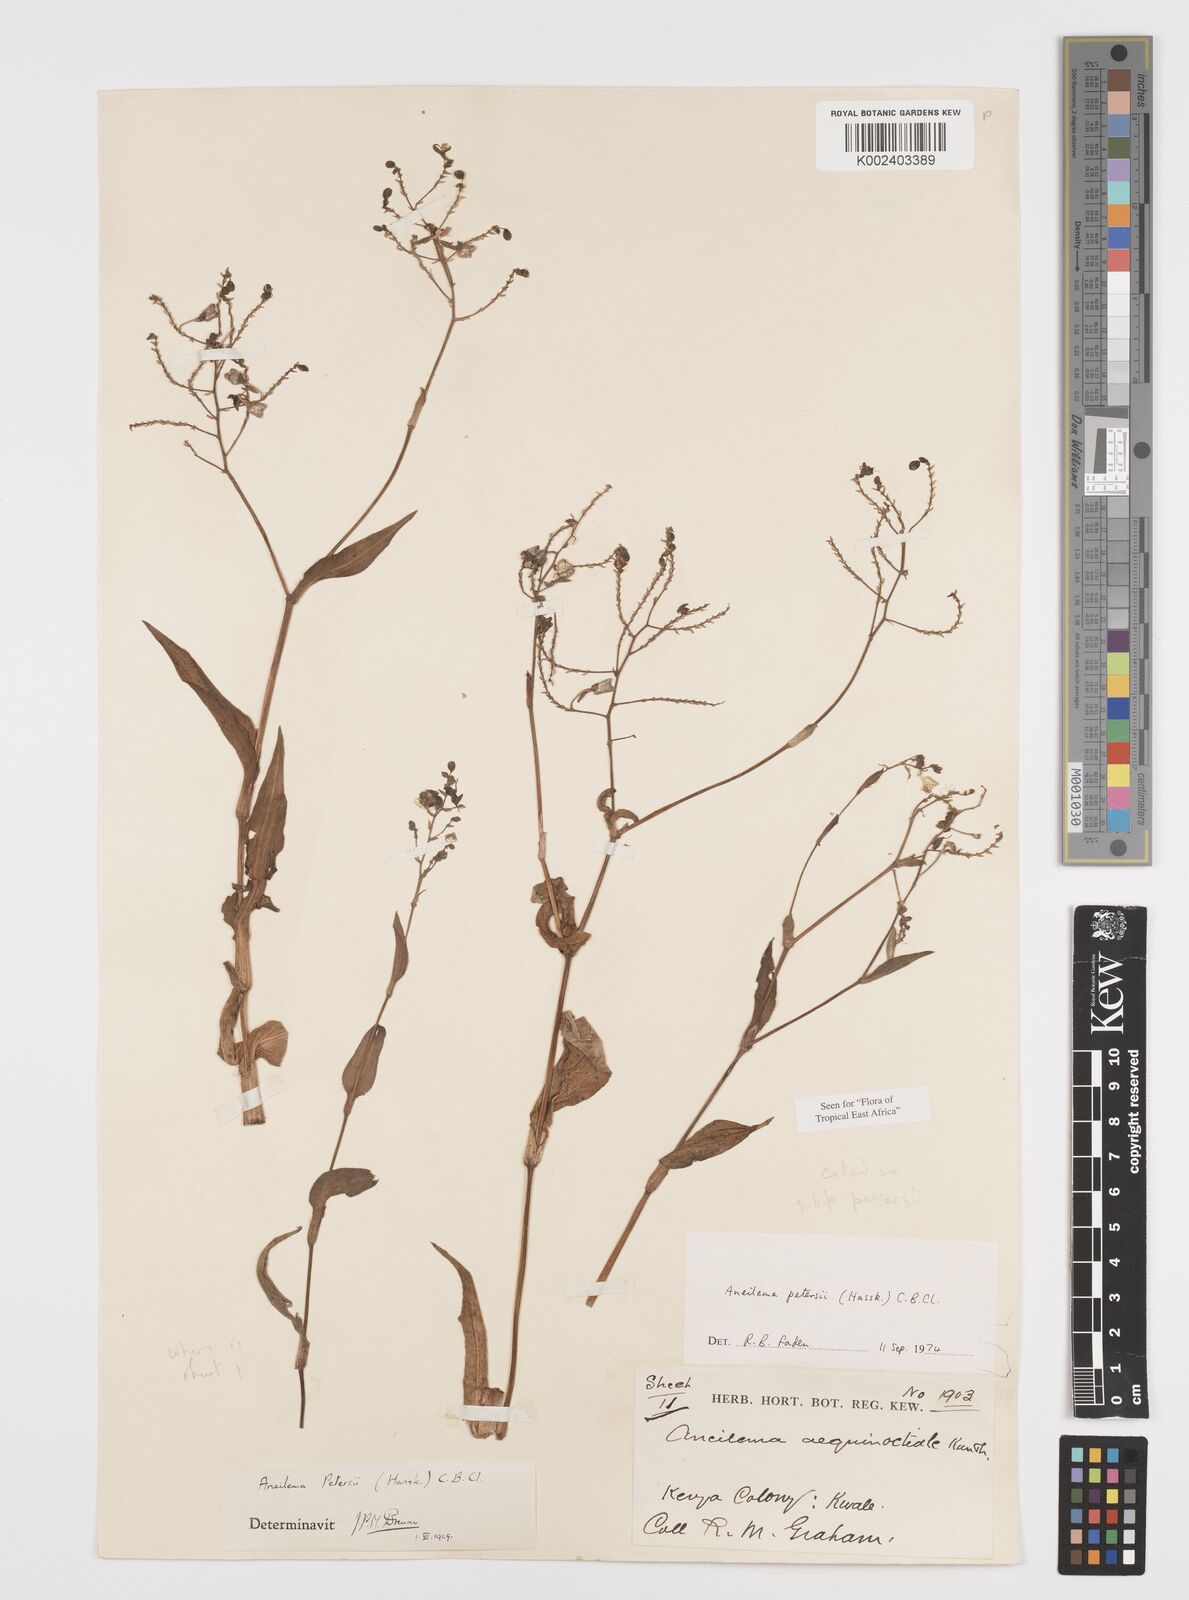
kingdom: Plantae
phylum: Tracheophyta
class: Liliopsida
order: Commelinales
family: Commelinaceae
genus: Aneilema
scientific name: Aneilema petersii
